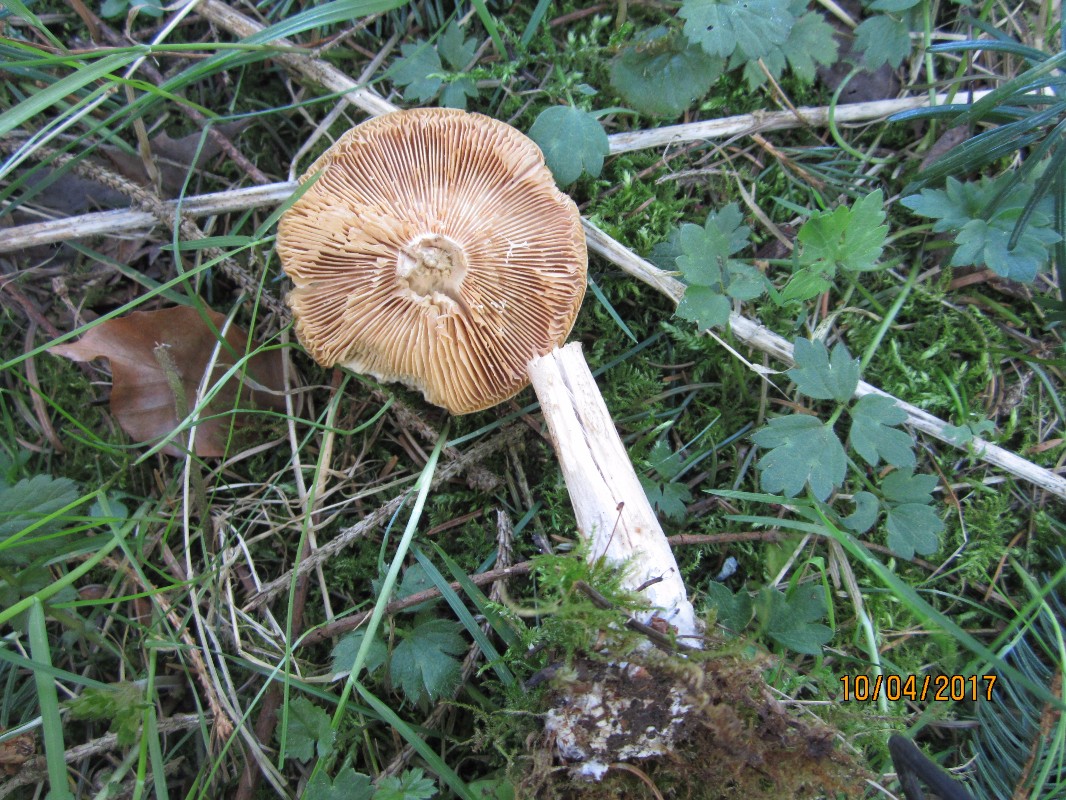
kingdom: Fungi
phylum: Basidiomycota
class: Agaricomycetes
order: Agaricales
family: Tricholomataceae
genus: Melanoleuca
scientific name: Melanoleuca cognata
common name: gyldengrå munkehat
